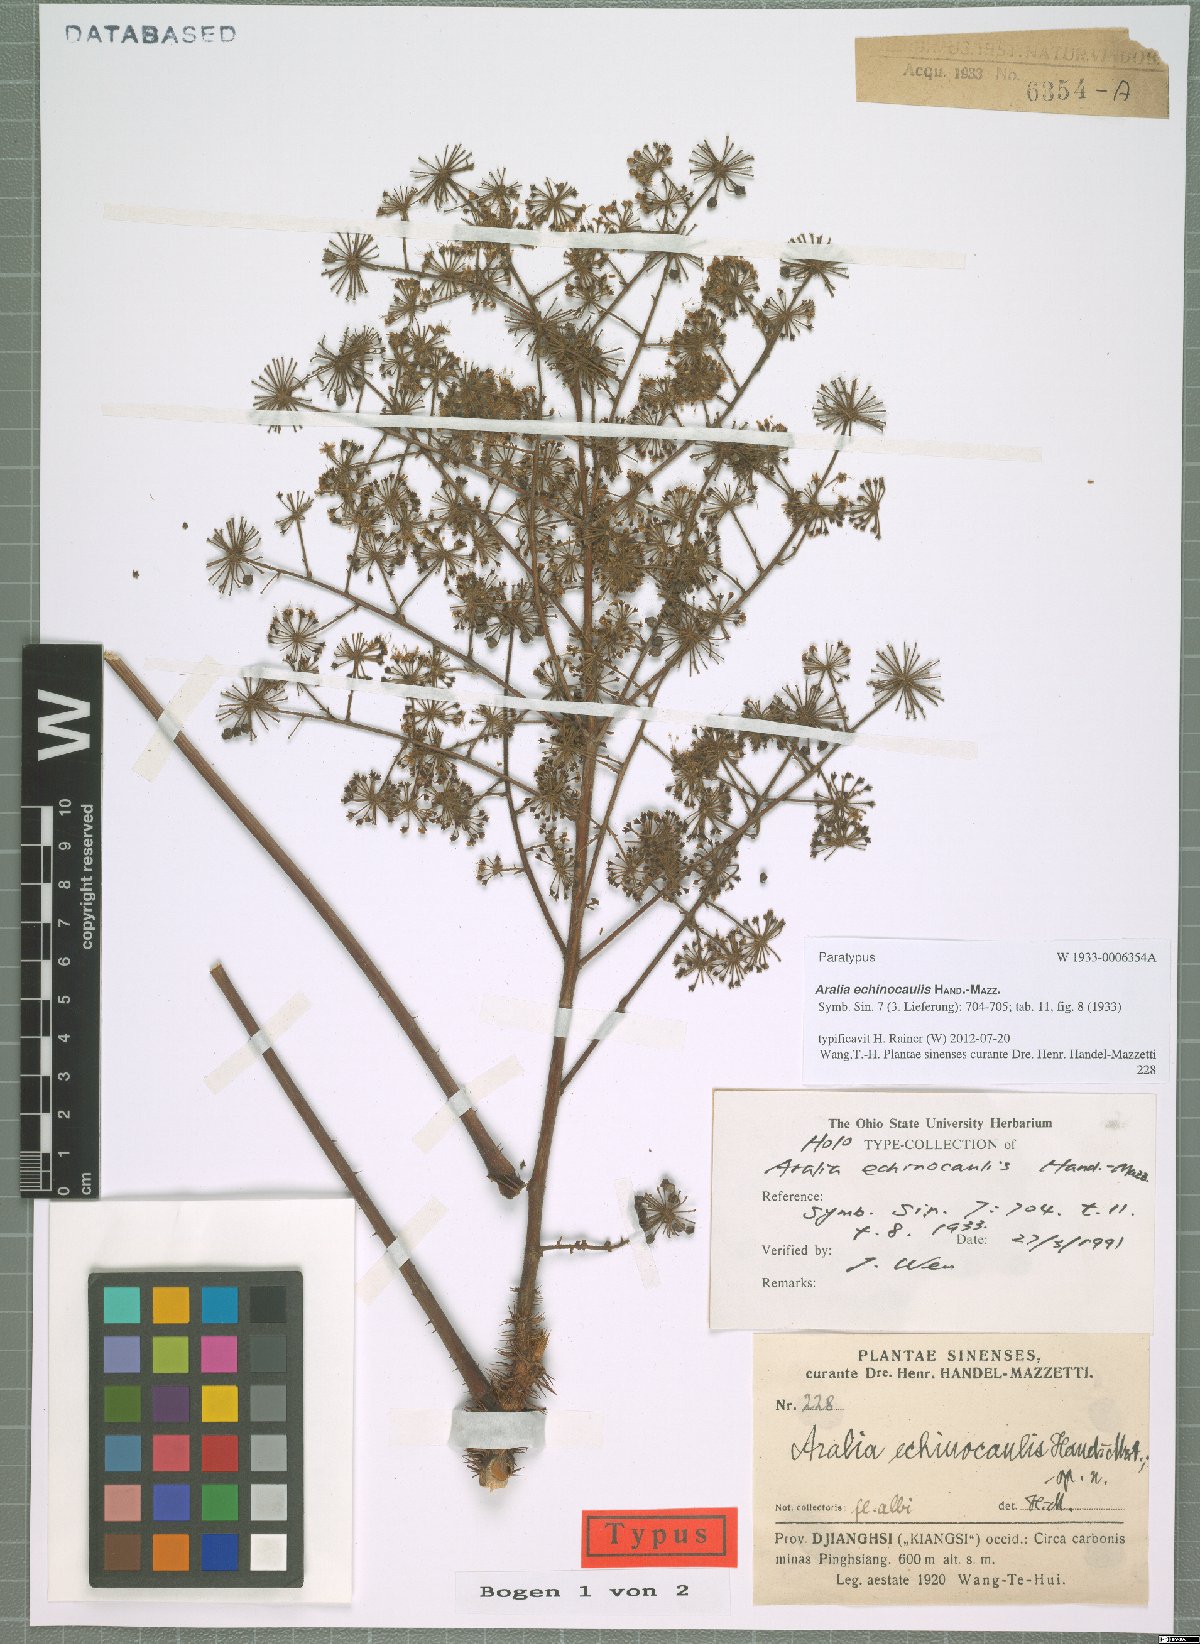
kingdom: Plantae
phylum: Tracheophyta
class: Magnoliopsida
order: Apiales
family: Araliaceae
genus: Aralia
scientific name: Aralia echinocaulis
